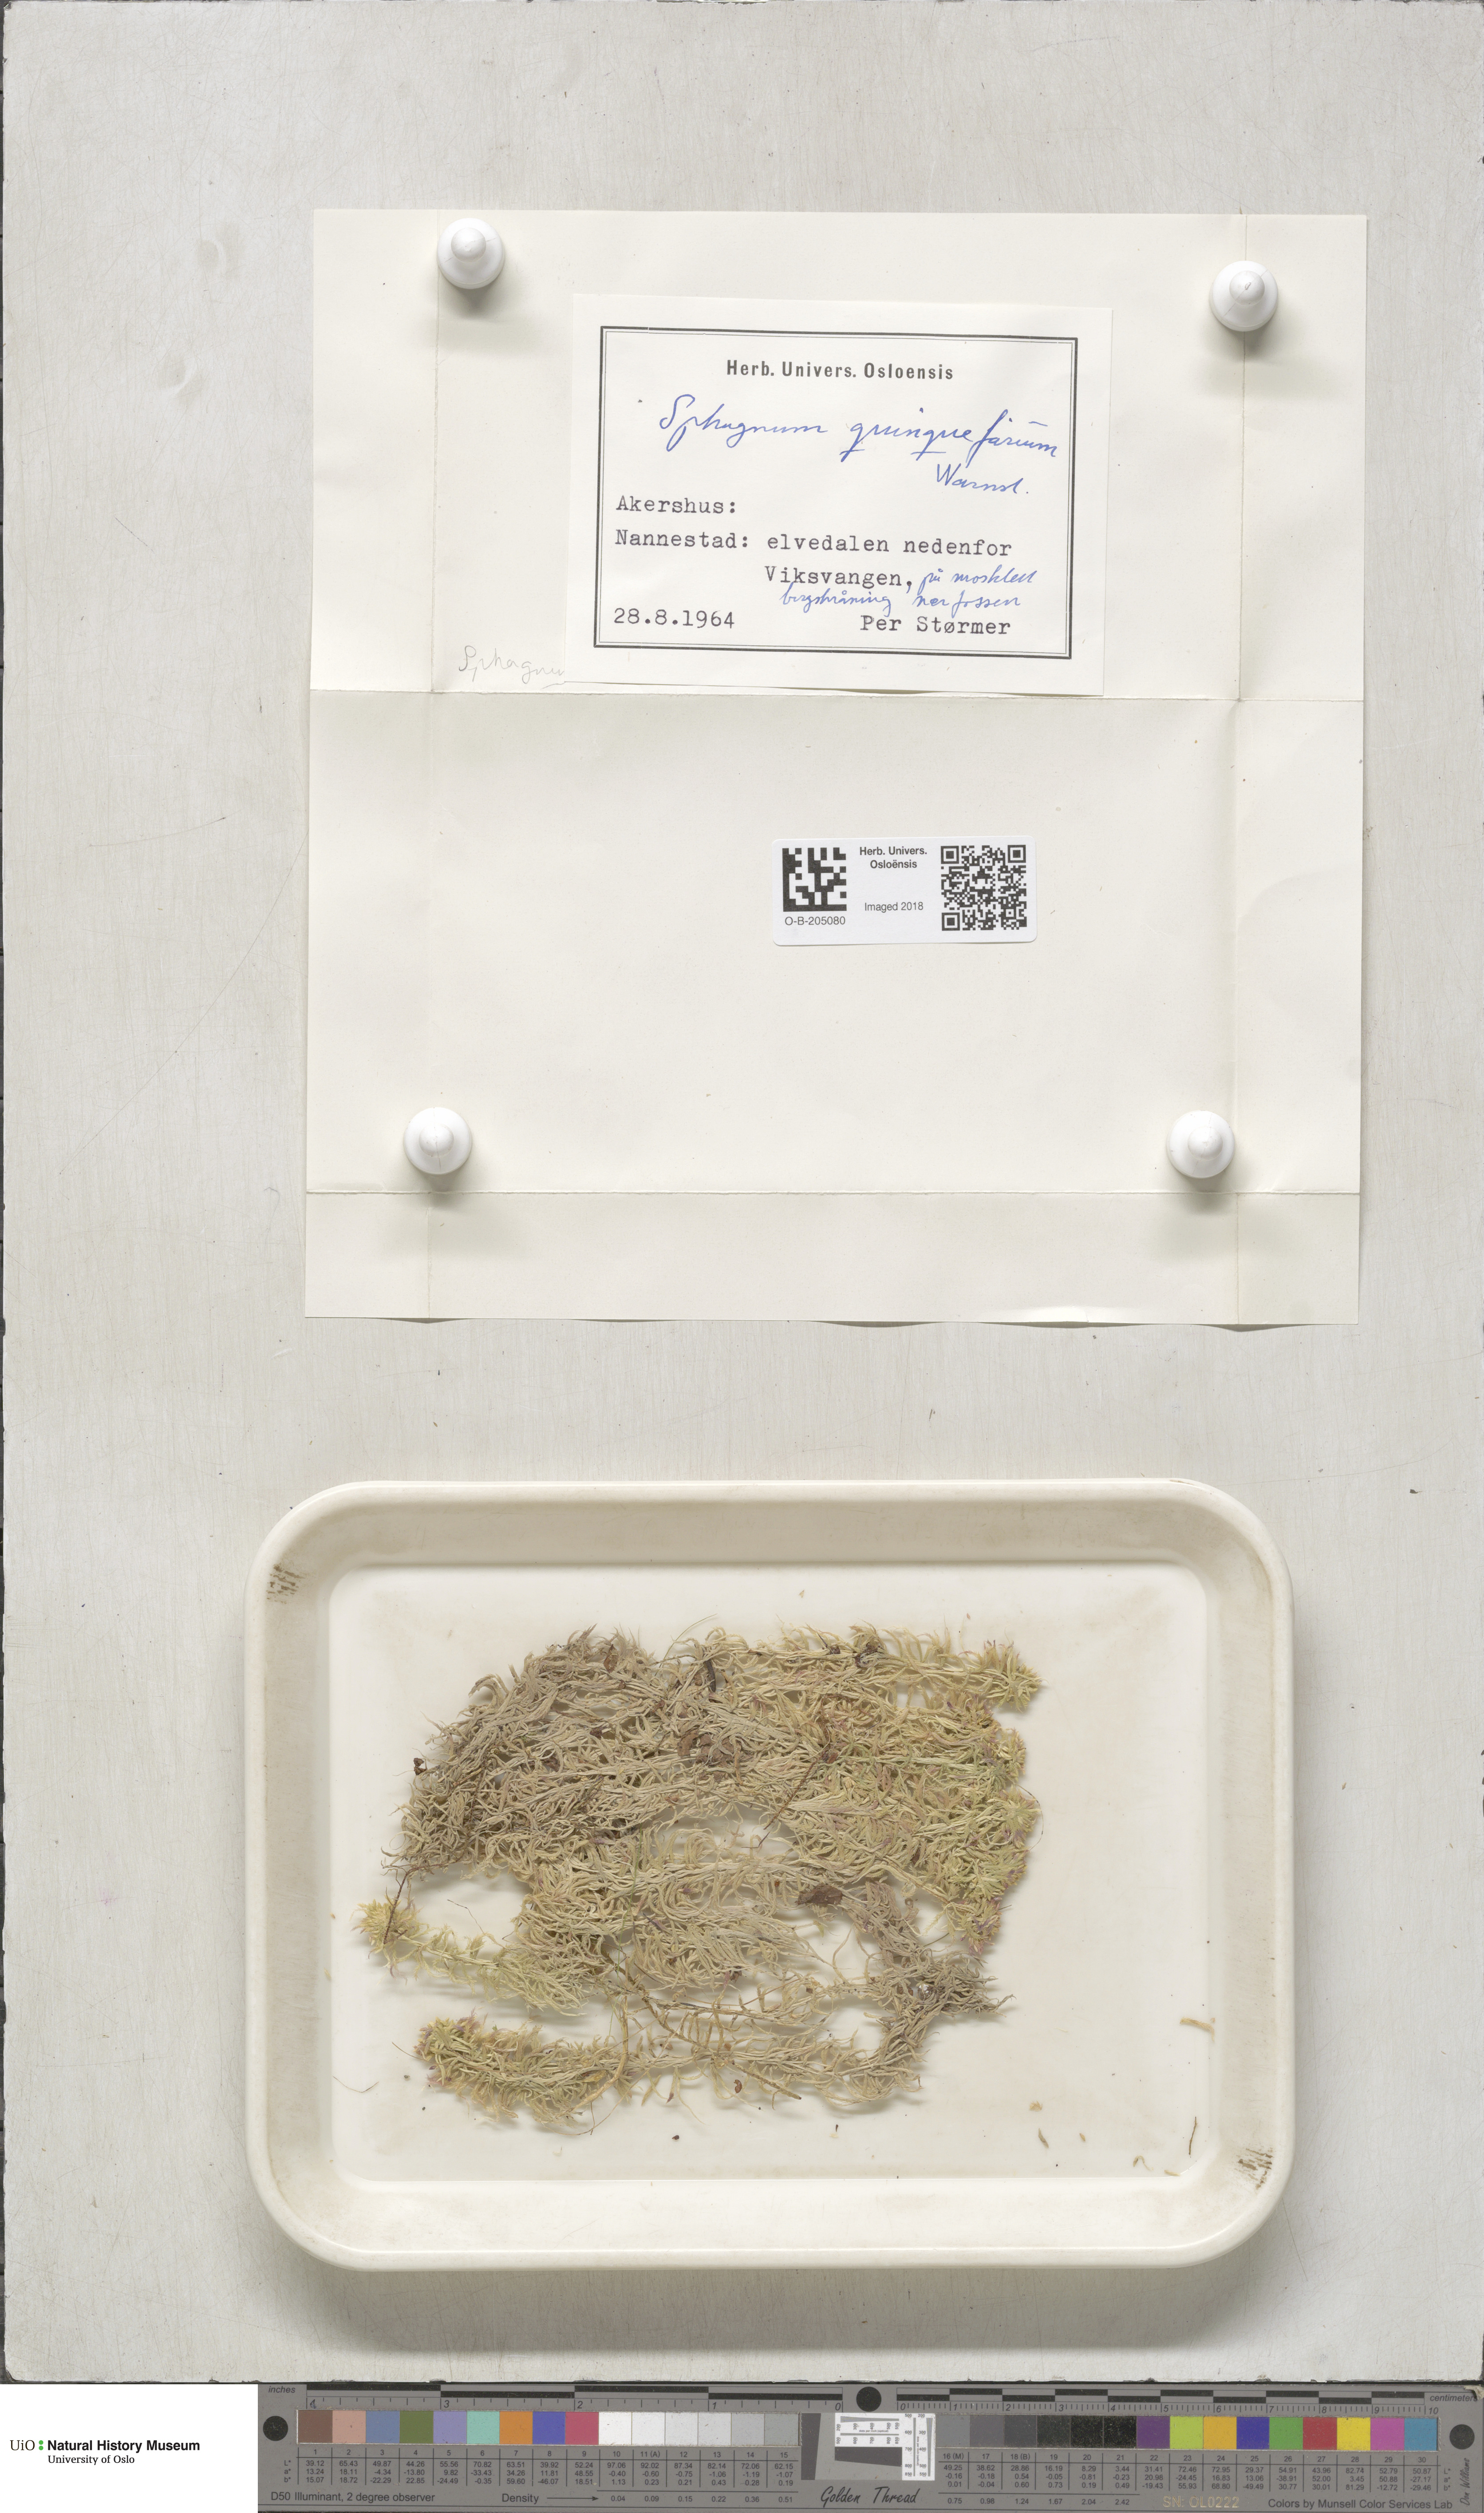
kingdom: Plantae
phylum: Bryophyta
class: Sphagnopsida
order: Sphagnales
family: Sphagnaceae
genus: Sphagnum
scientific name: Sphagnum quinquefarium
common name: Five-ranked peat moss
